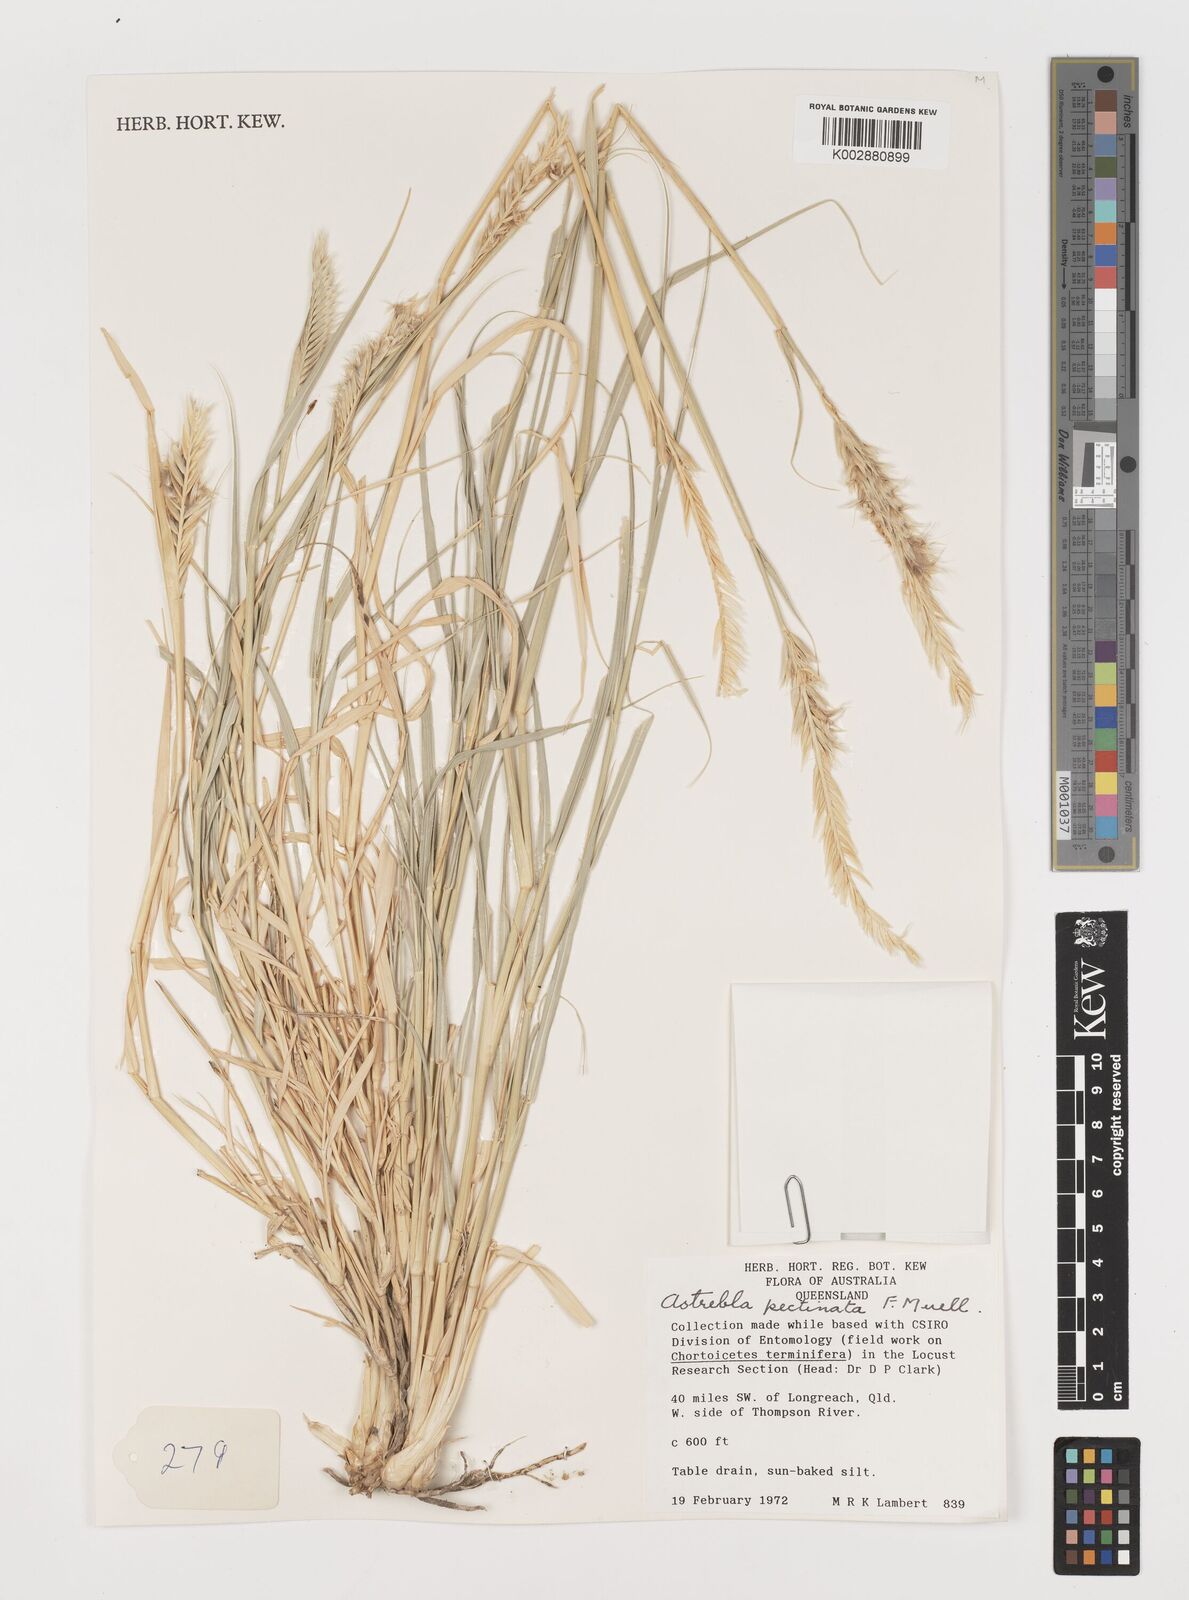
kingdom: Plantae
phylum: Tracheophyta
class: Liliopsida
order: Poales
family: Poaceae
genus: Astrebla
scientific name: Astrebla pectinata
